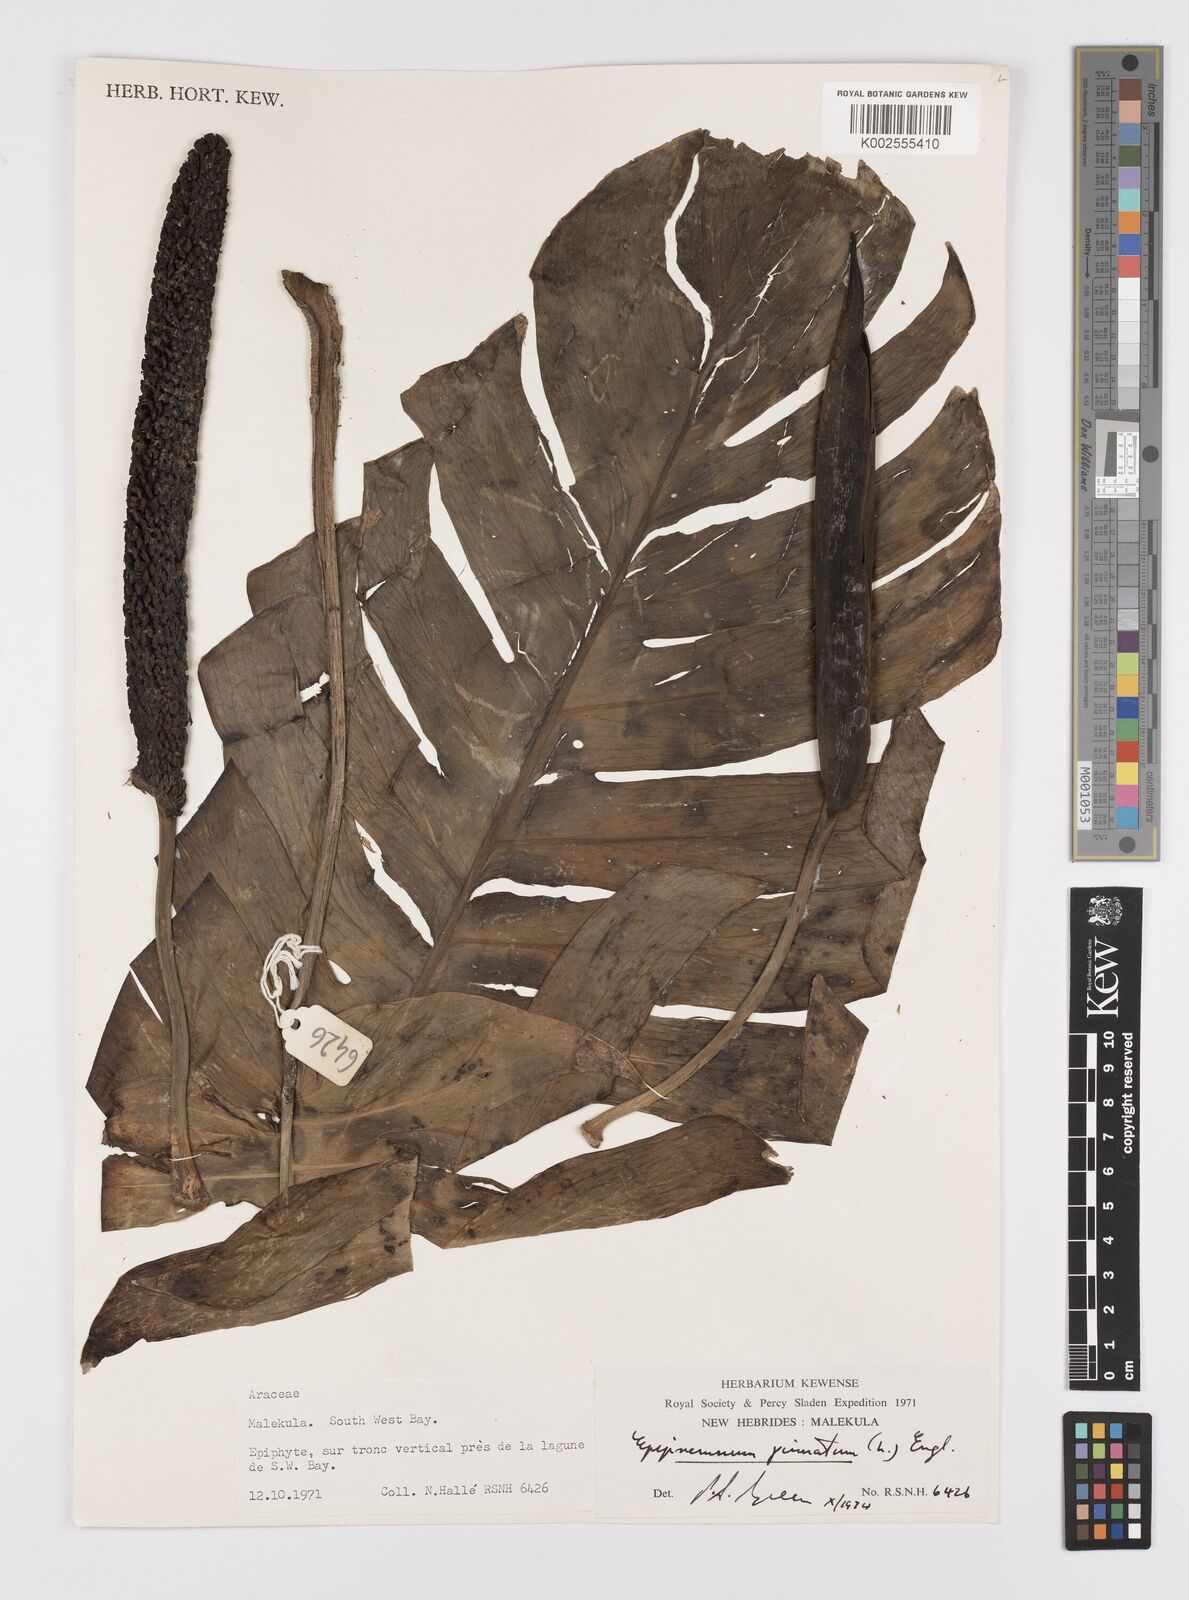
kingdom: Plantae
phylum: Tracheophyta
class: Liliopsida
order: Alismatales
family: Araceae
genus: Epipremnum
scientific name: Epipremnum pinnatum
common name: Centipede tongavine
